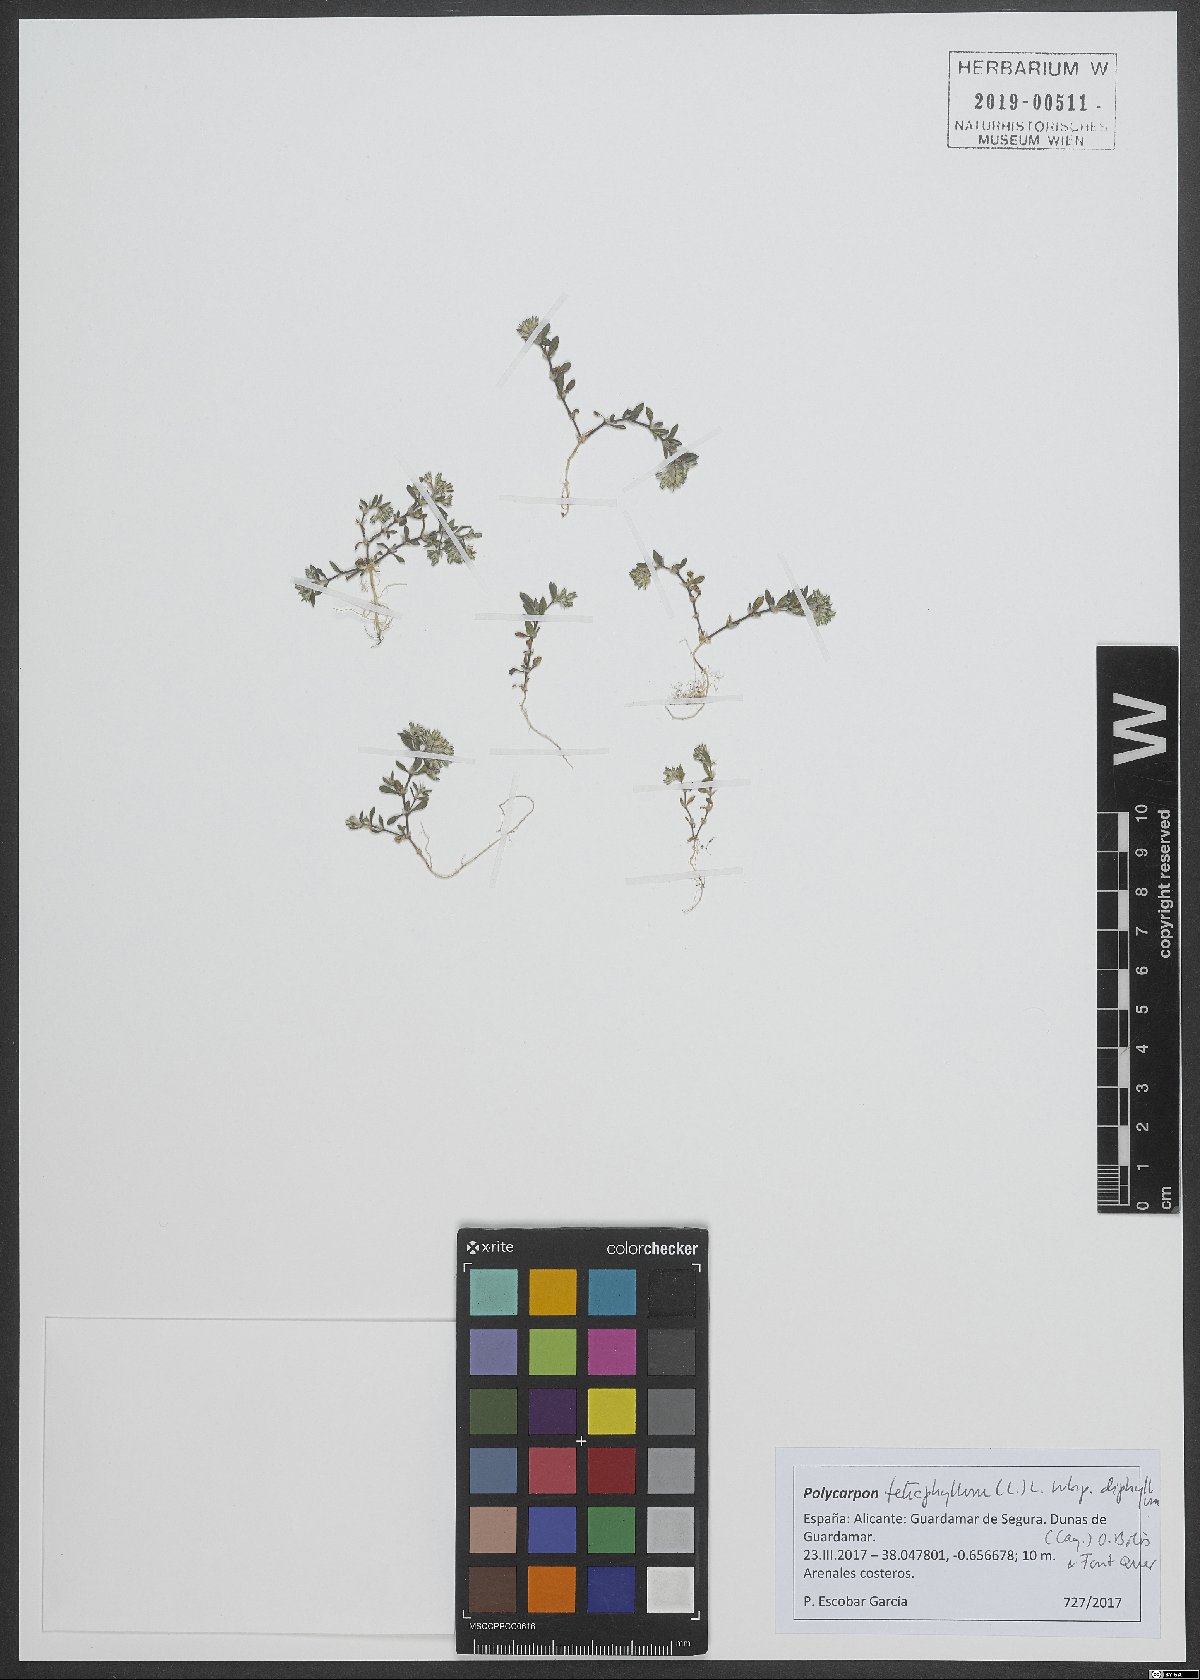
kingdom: Plantae
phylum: Tracheophyta
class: Magnoliopsida
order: Caryophyllales
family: Caryophyllaceae
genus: Polycarpon
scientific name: Polycarpon tetraphyllum
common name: Four-leaved all-seed
